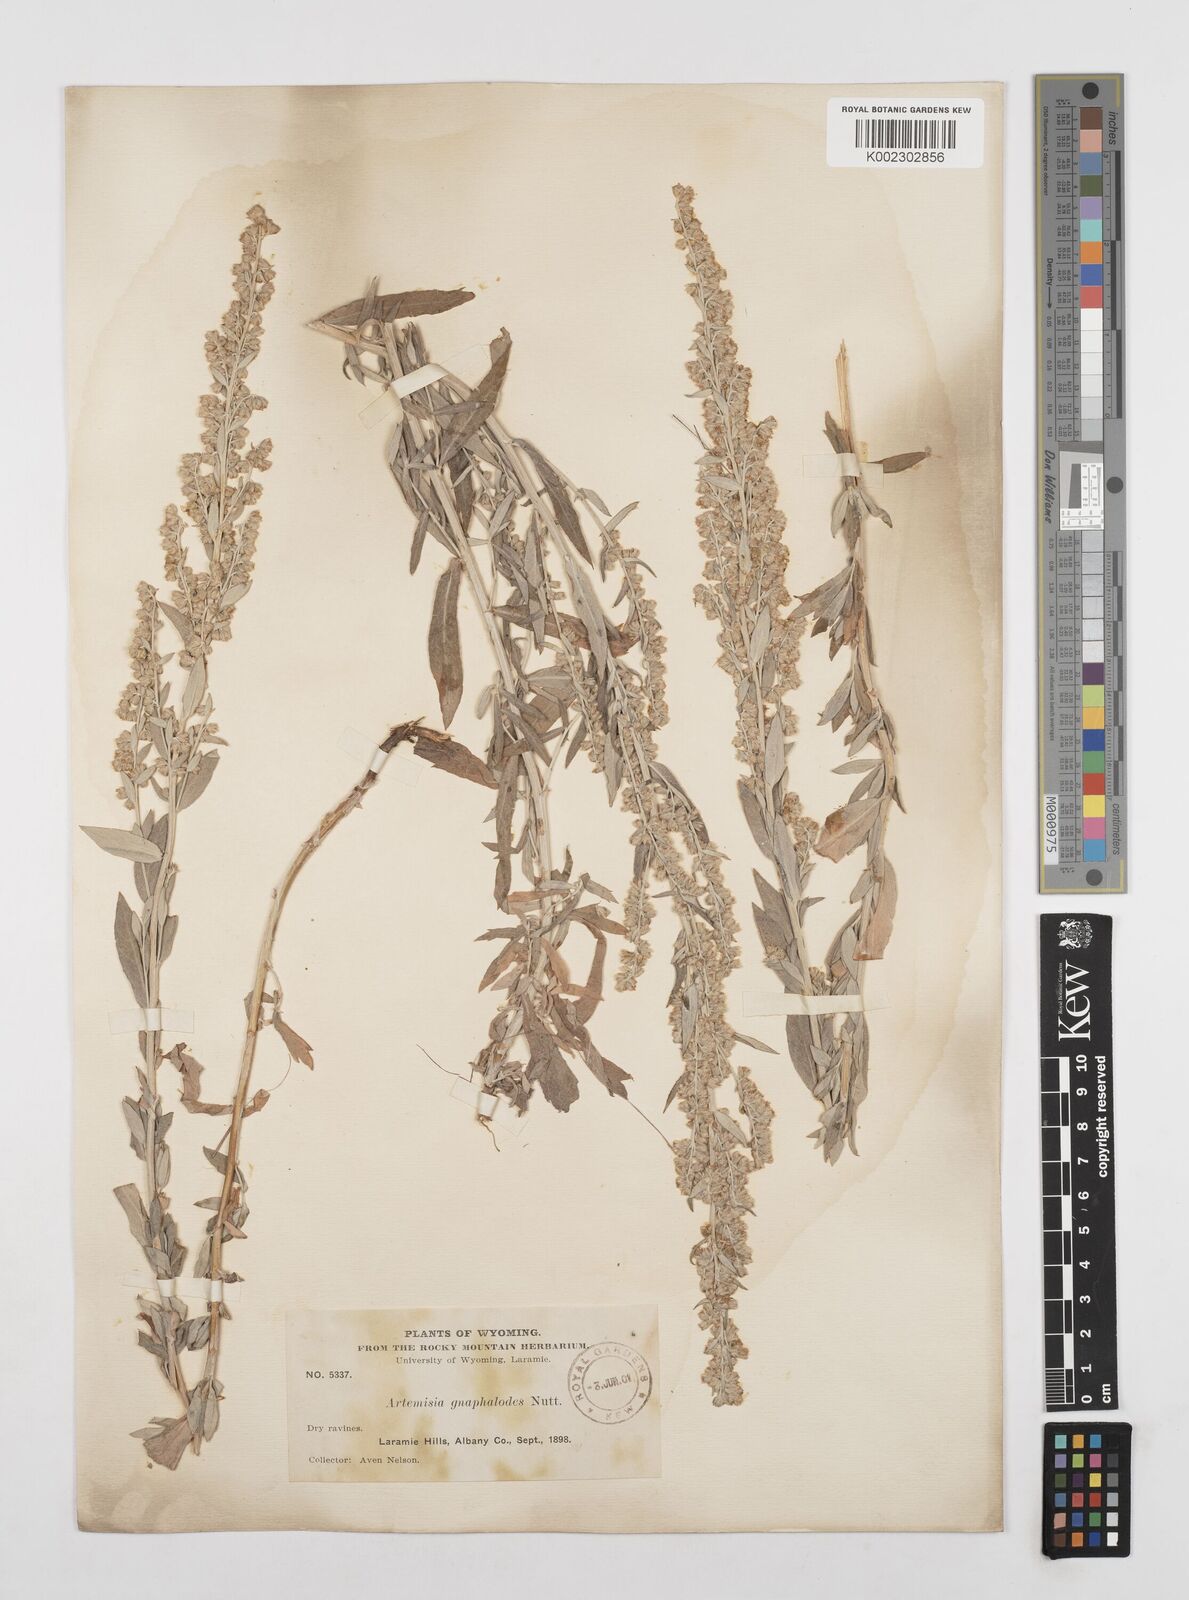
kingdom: Plantae
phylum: Tracheophyta
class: Magnoliopsida
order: Asterales
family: Asteraceae
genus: Artemisia
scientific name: Artemisia ludoviciana
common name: Western mugwort
